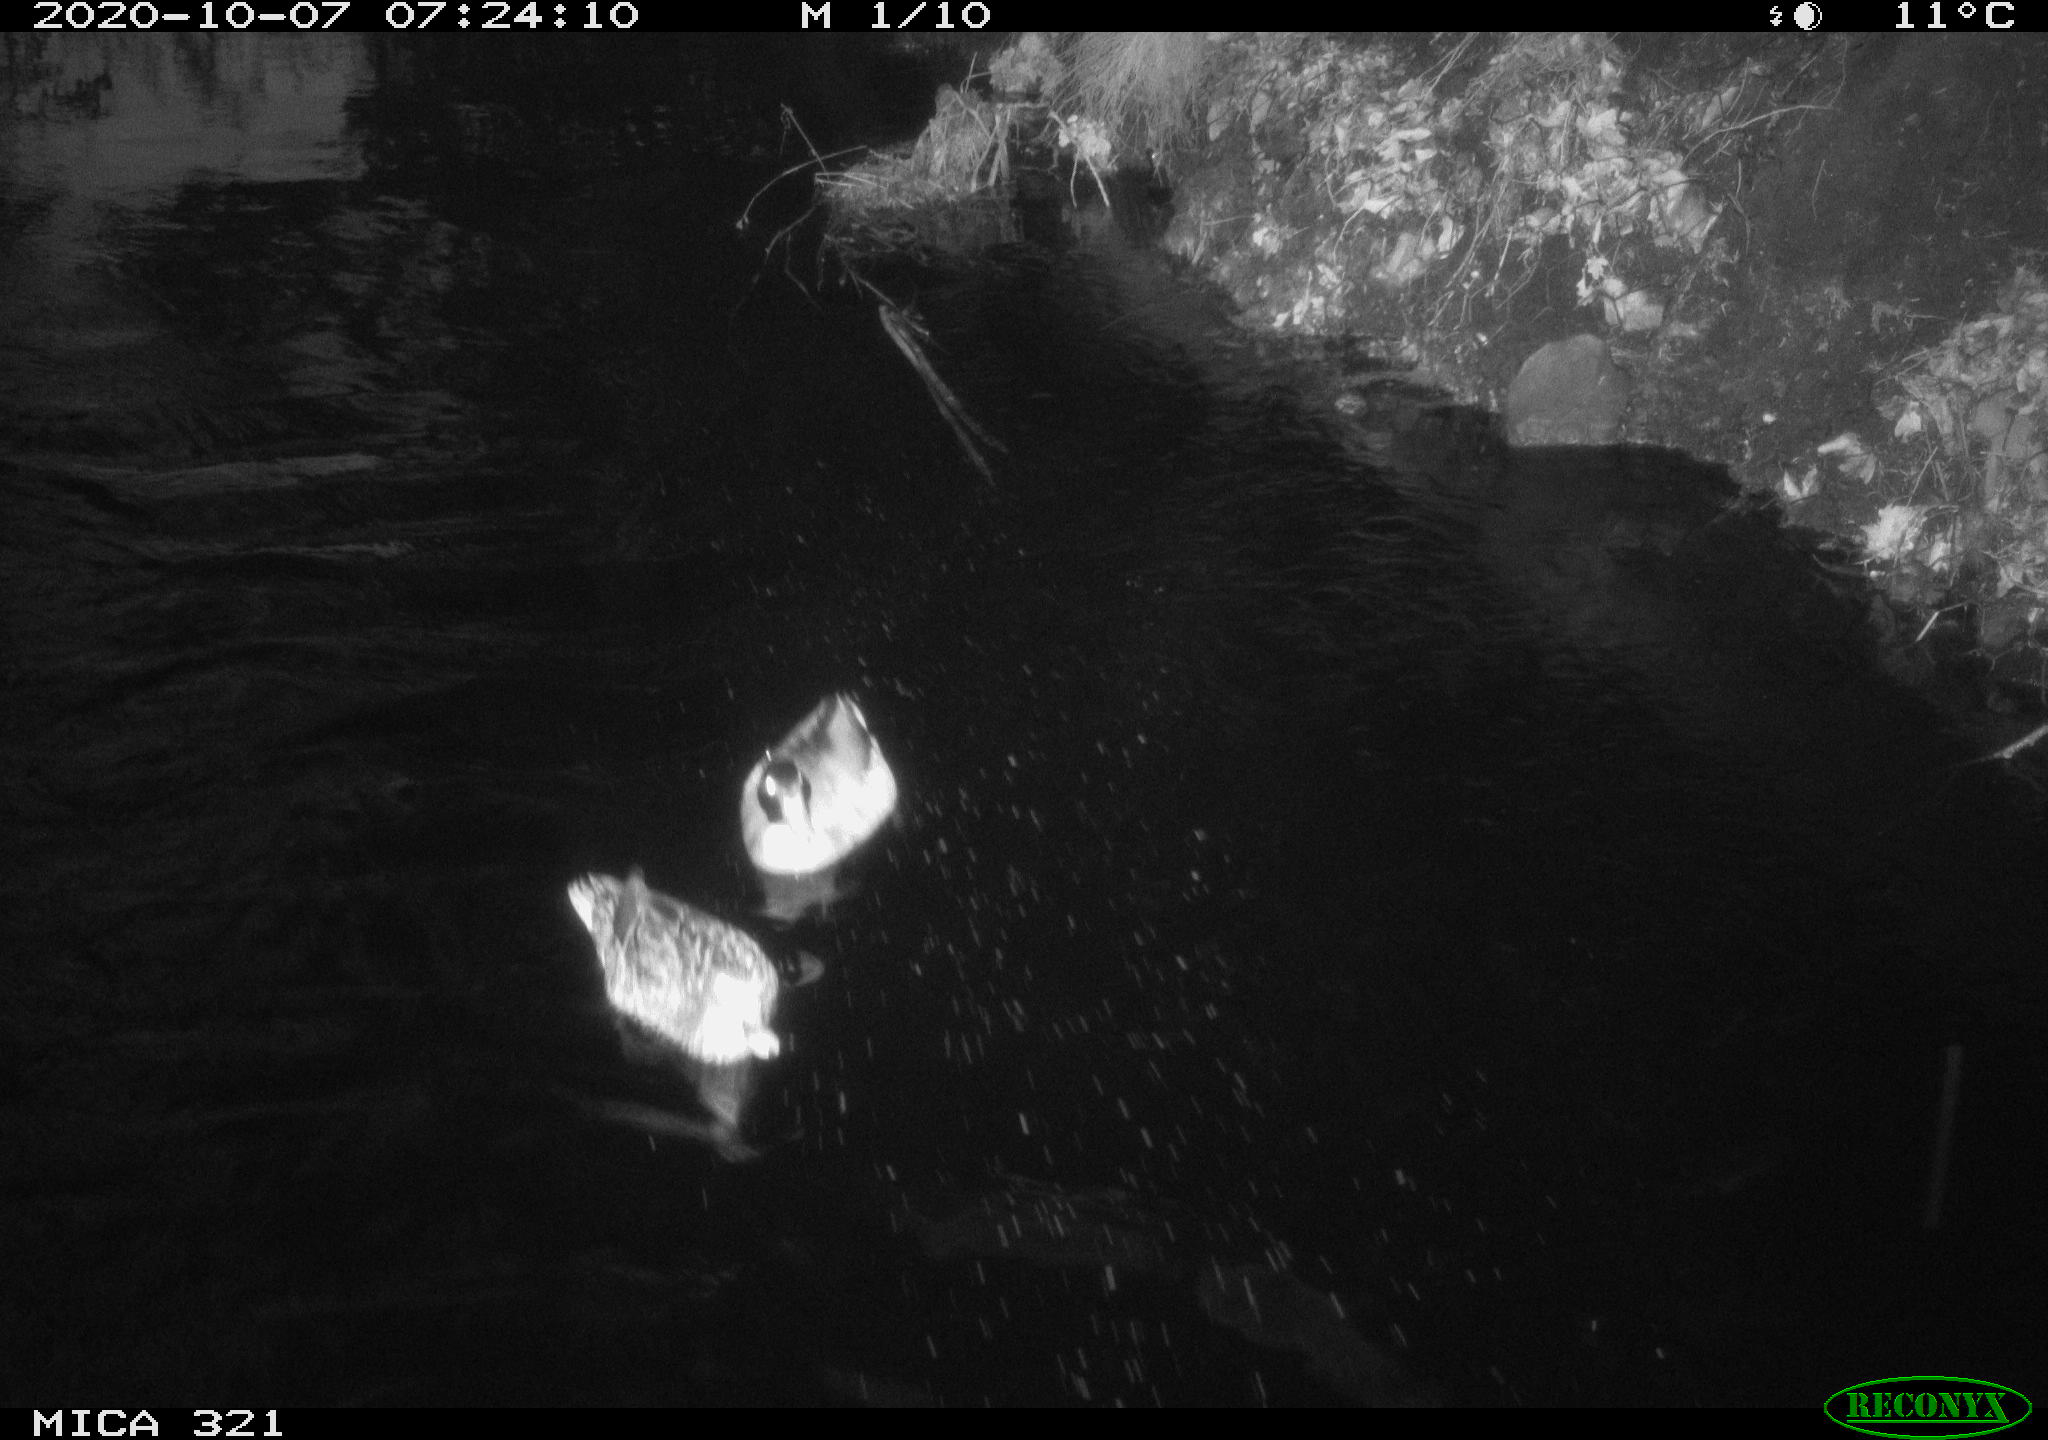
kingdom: Animalia
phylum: Chordata
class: Aves
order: Anseriformes
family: Anatidae
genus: Anas
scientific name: Anas platyrhynchos
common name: Mallard
